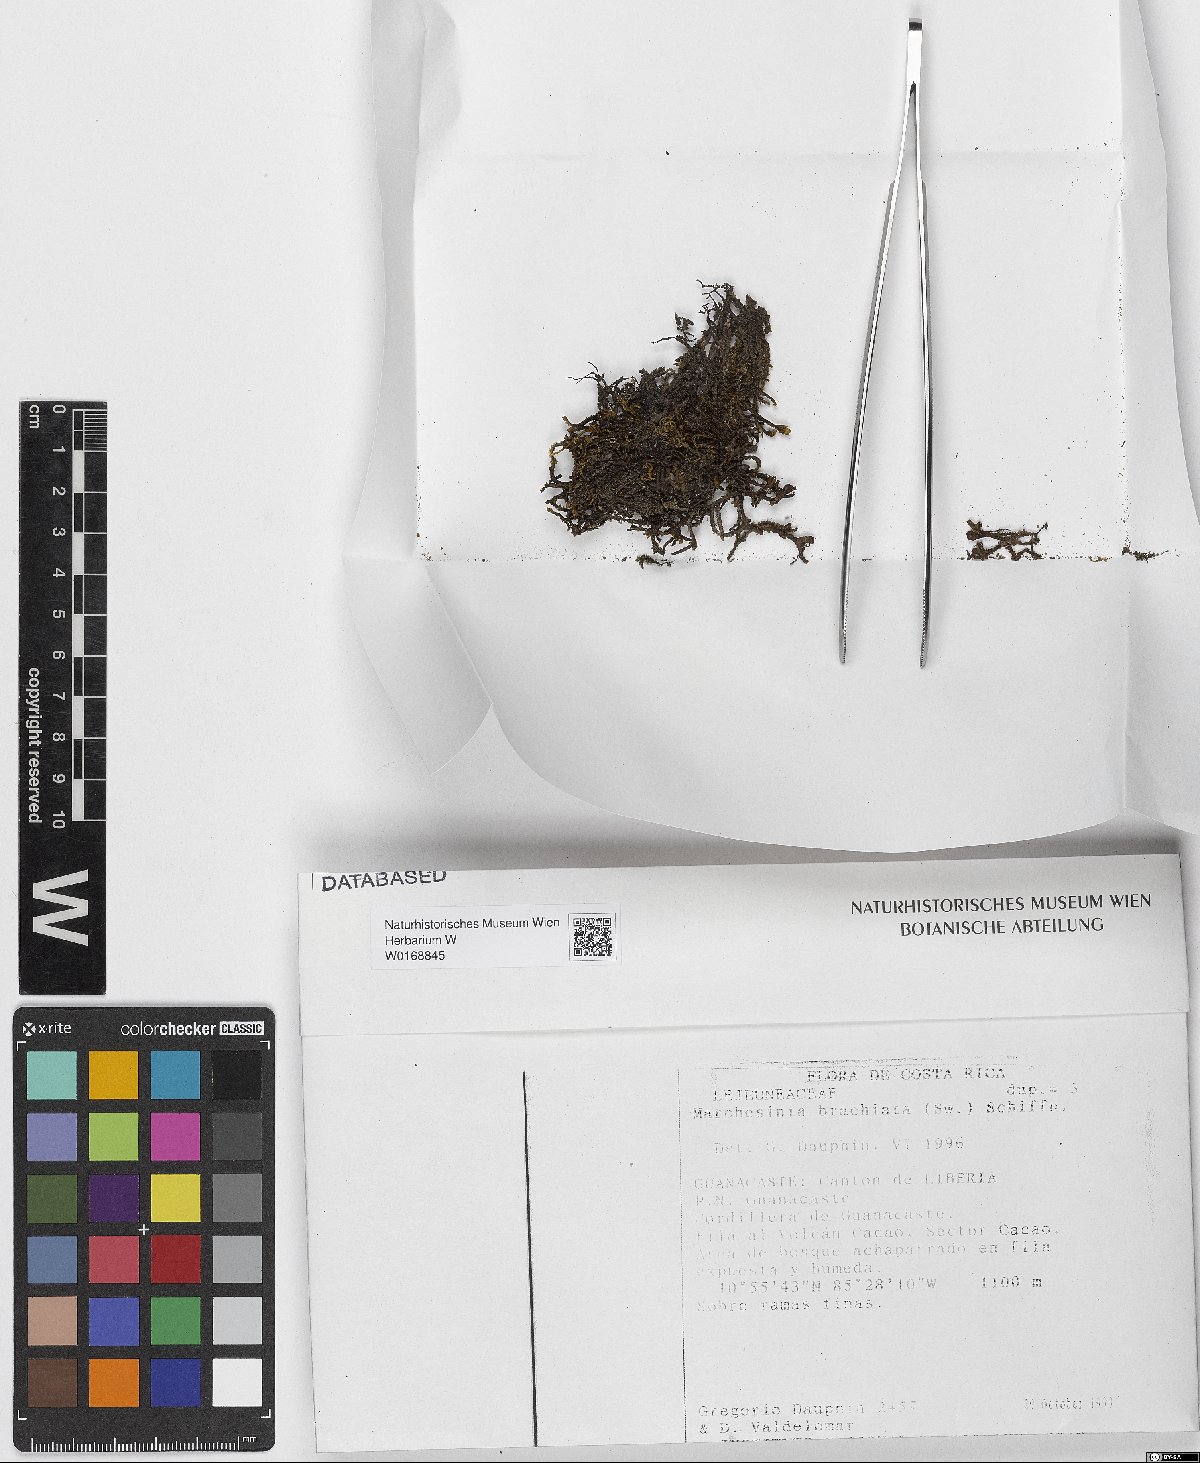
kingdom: Plantae
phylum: Marchantiophyta
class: Jungermanniopsida
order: Porellales
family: Lejeuneaceae
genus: Marchesinia
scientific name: Marchesinia brachiata
